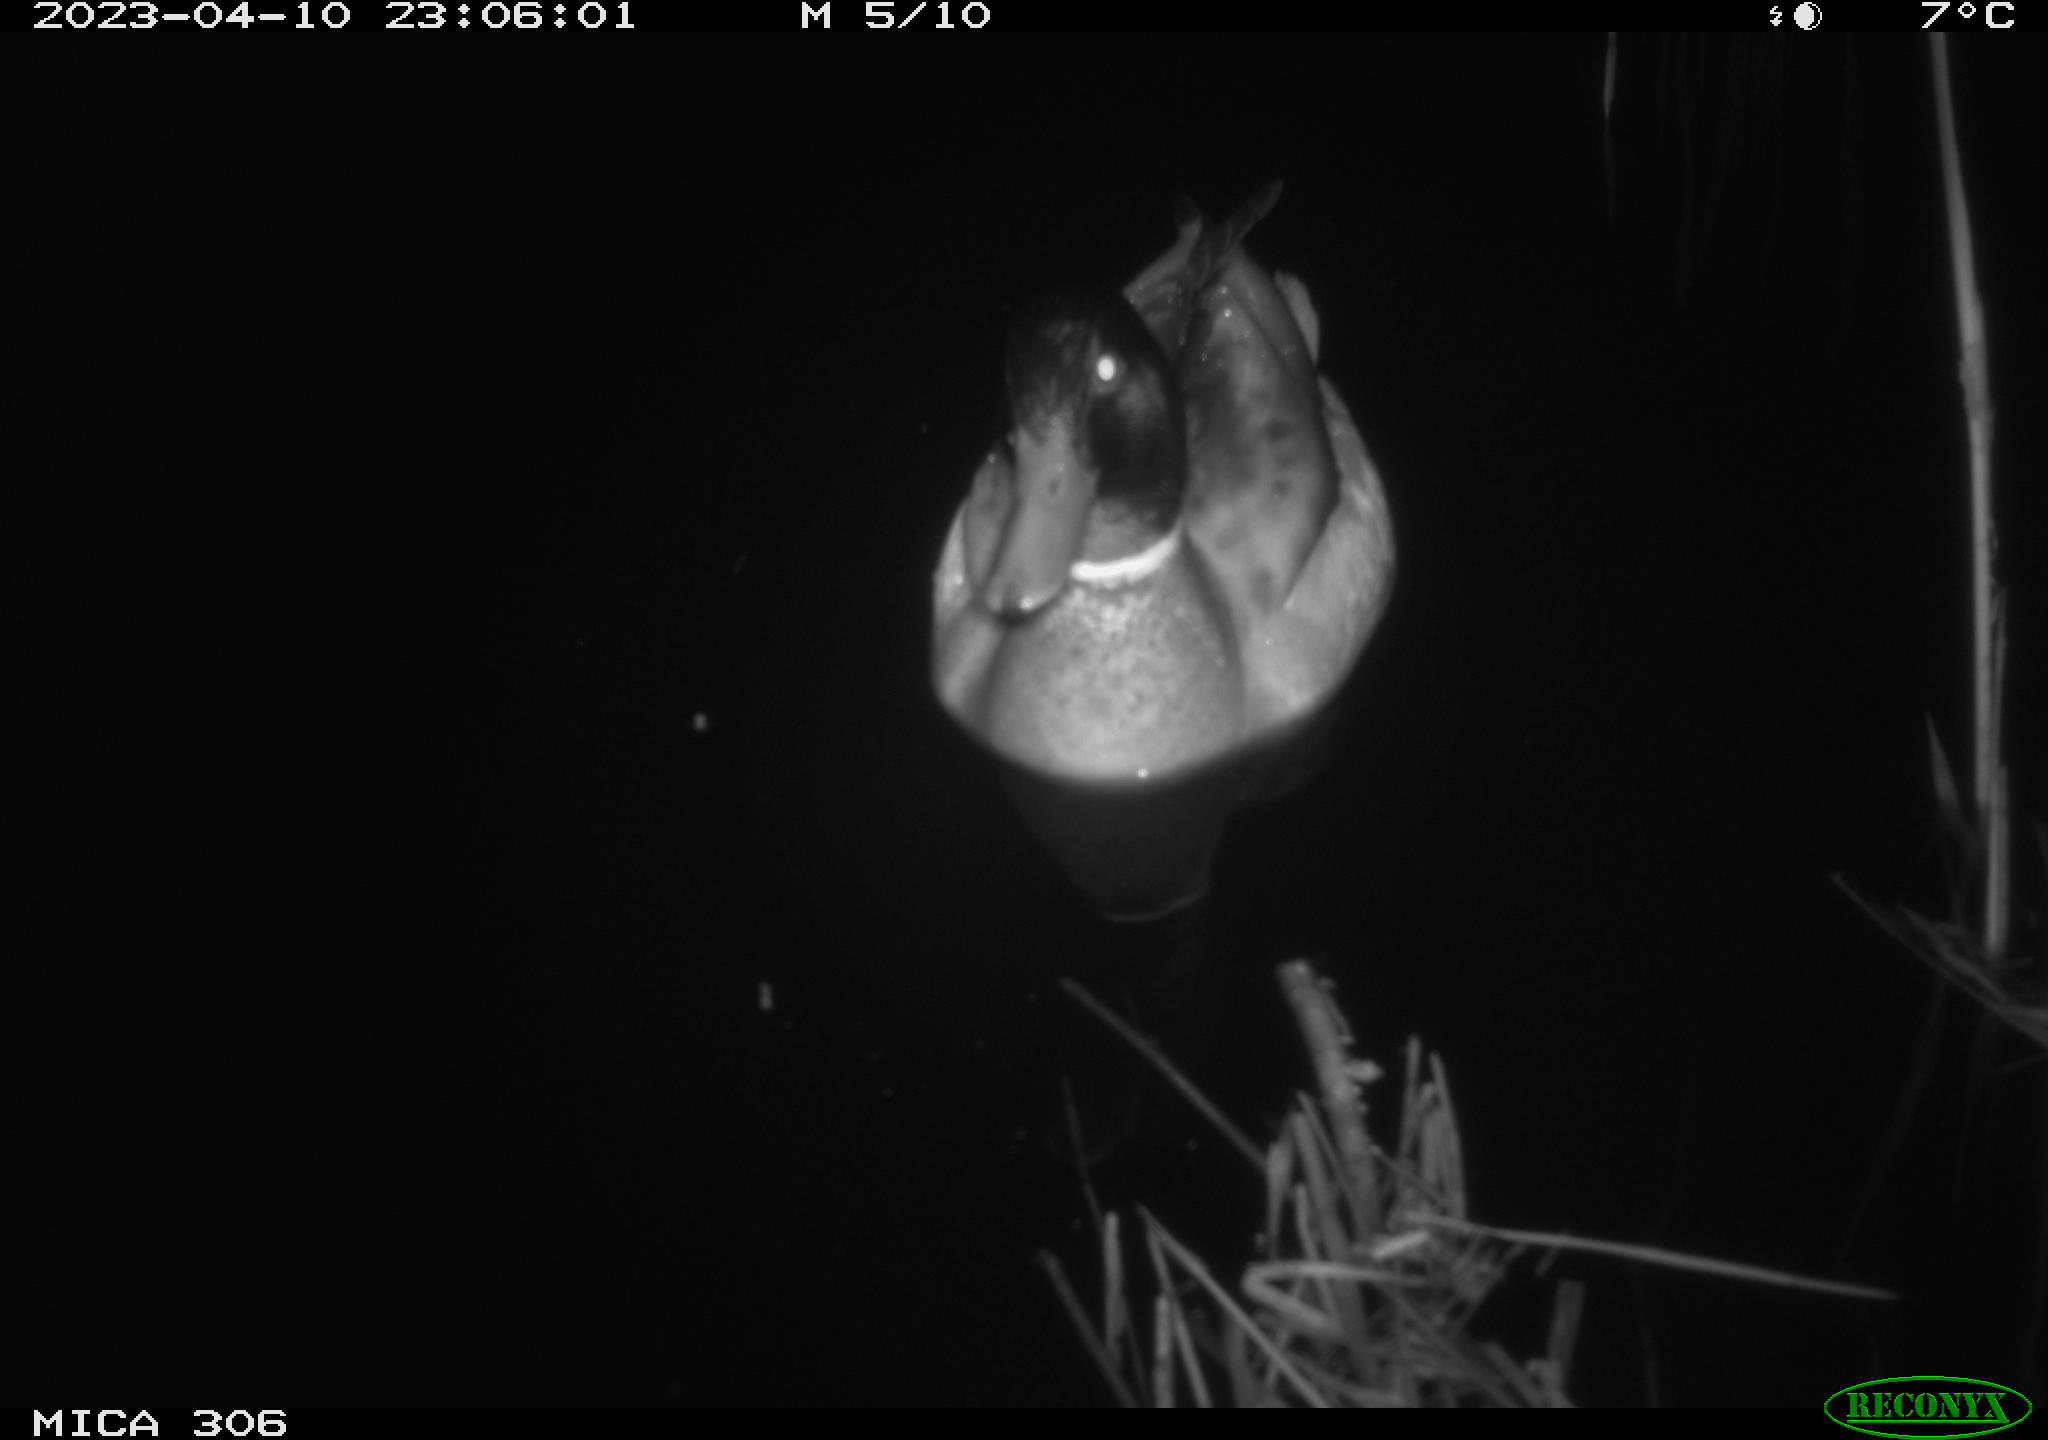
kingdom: Animalia
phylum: Chordata
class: Aves
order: Anseriformes
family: Anatidae
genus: Anas
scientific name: Anas
